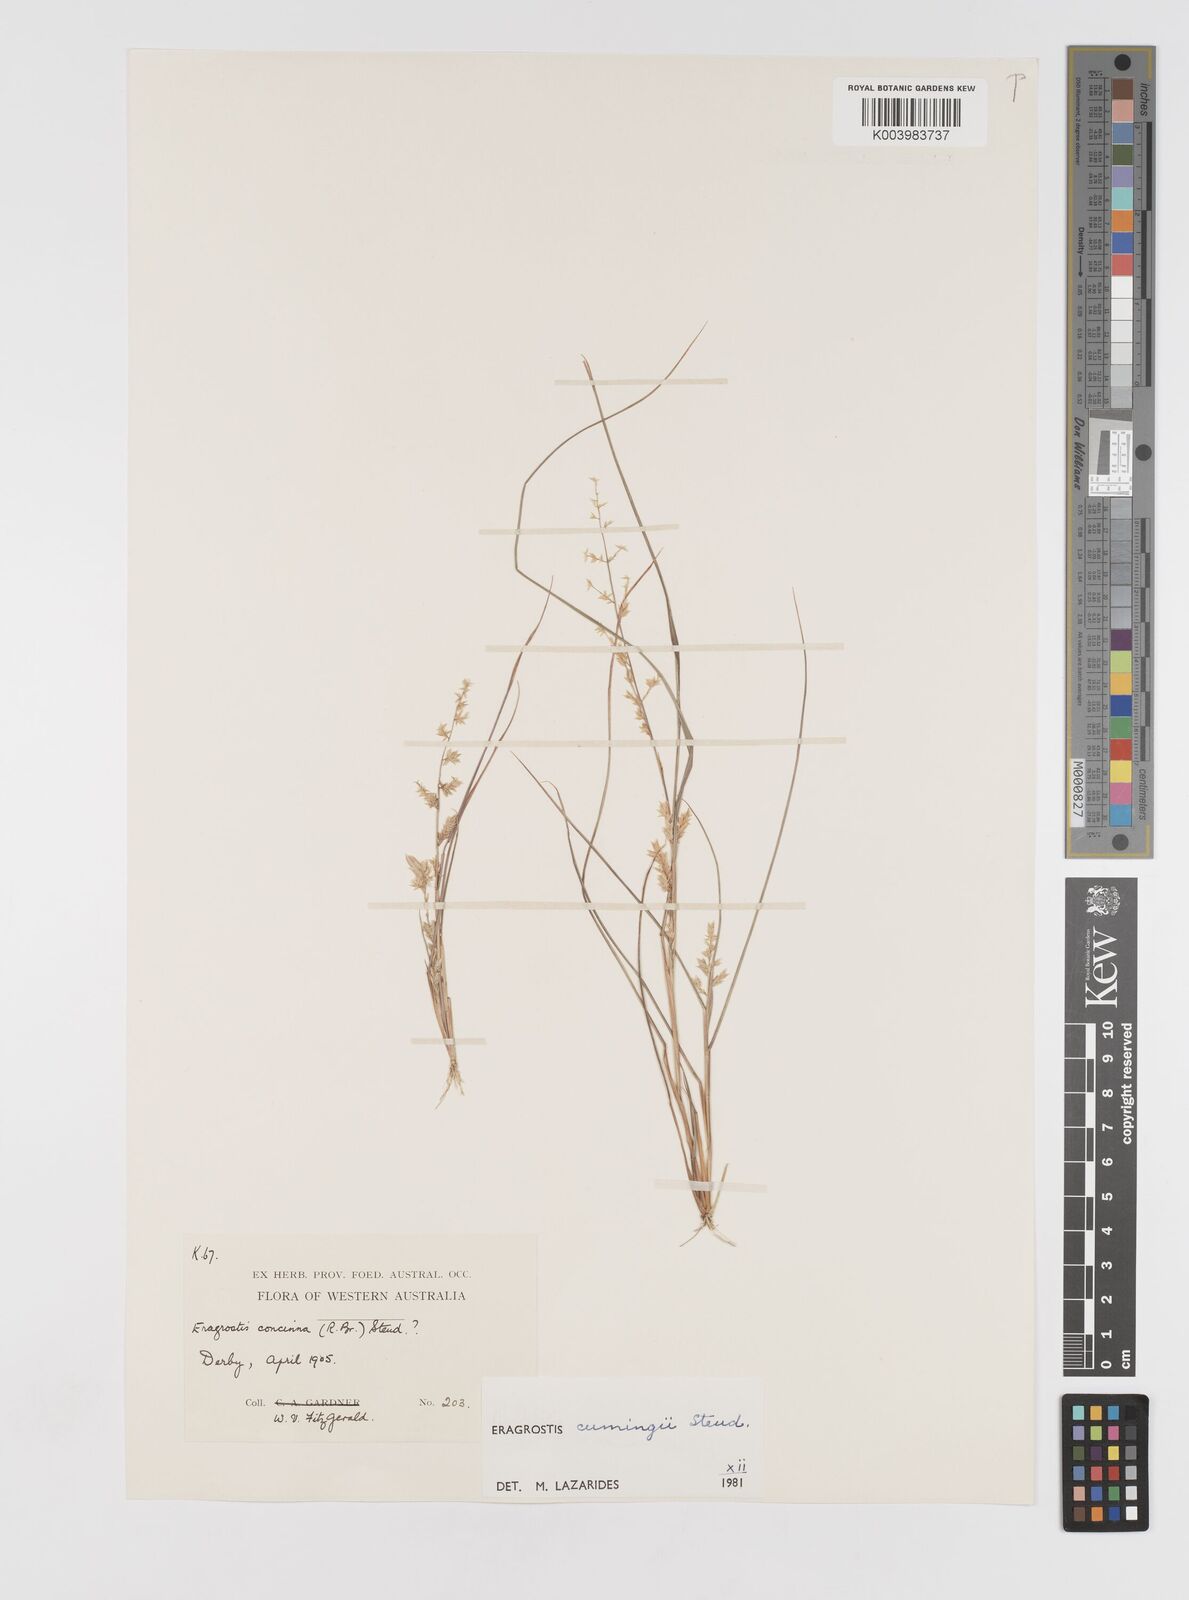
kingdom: Plantae
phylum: Tracheophyta
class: Liliopsida
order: Poales
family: Poaceae
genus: Eragrostis
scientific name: Eragrostis cumingii
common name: Cuming's lovegrass
